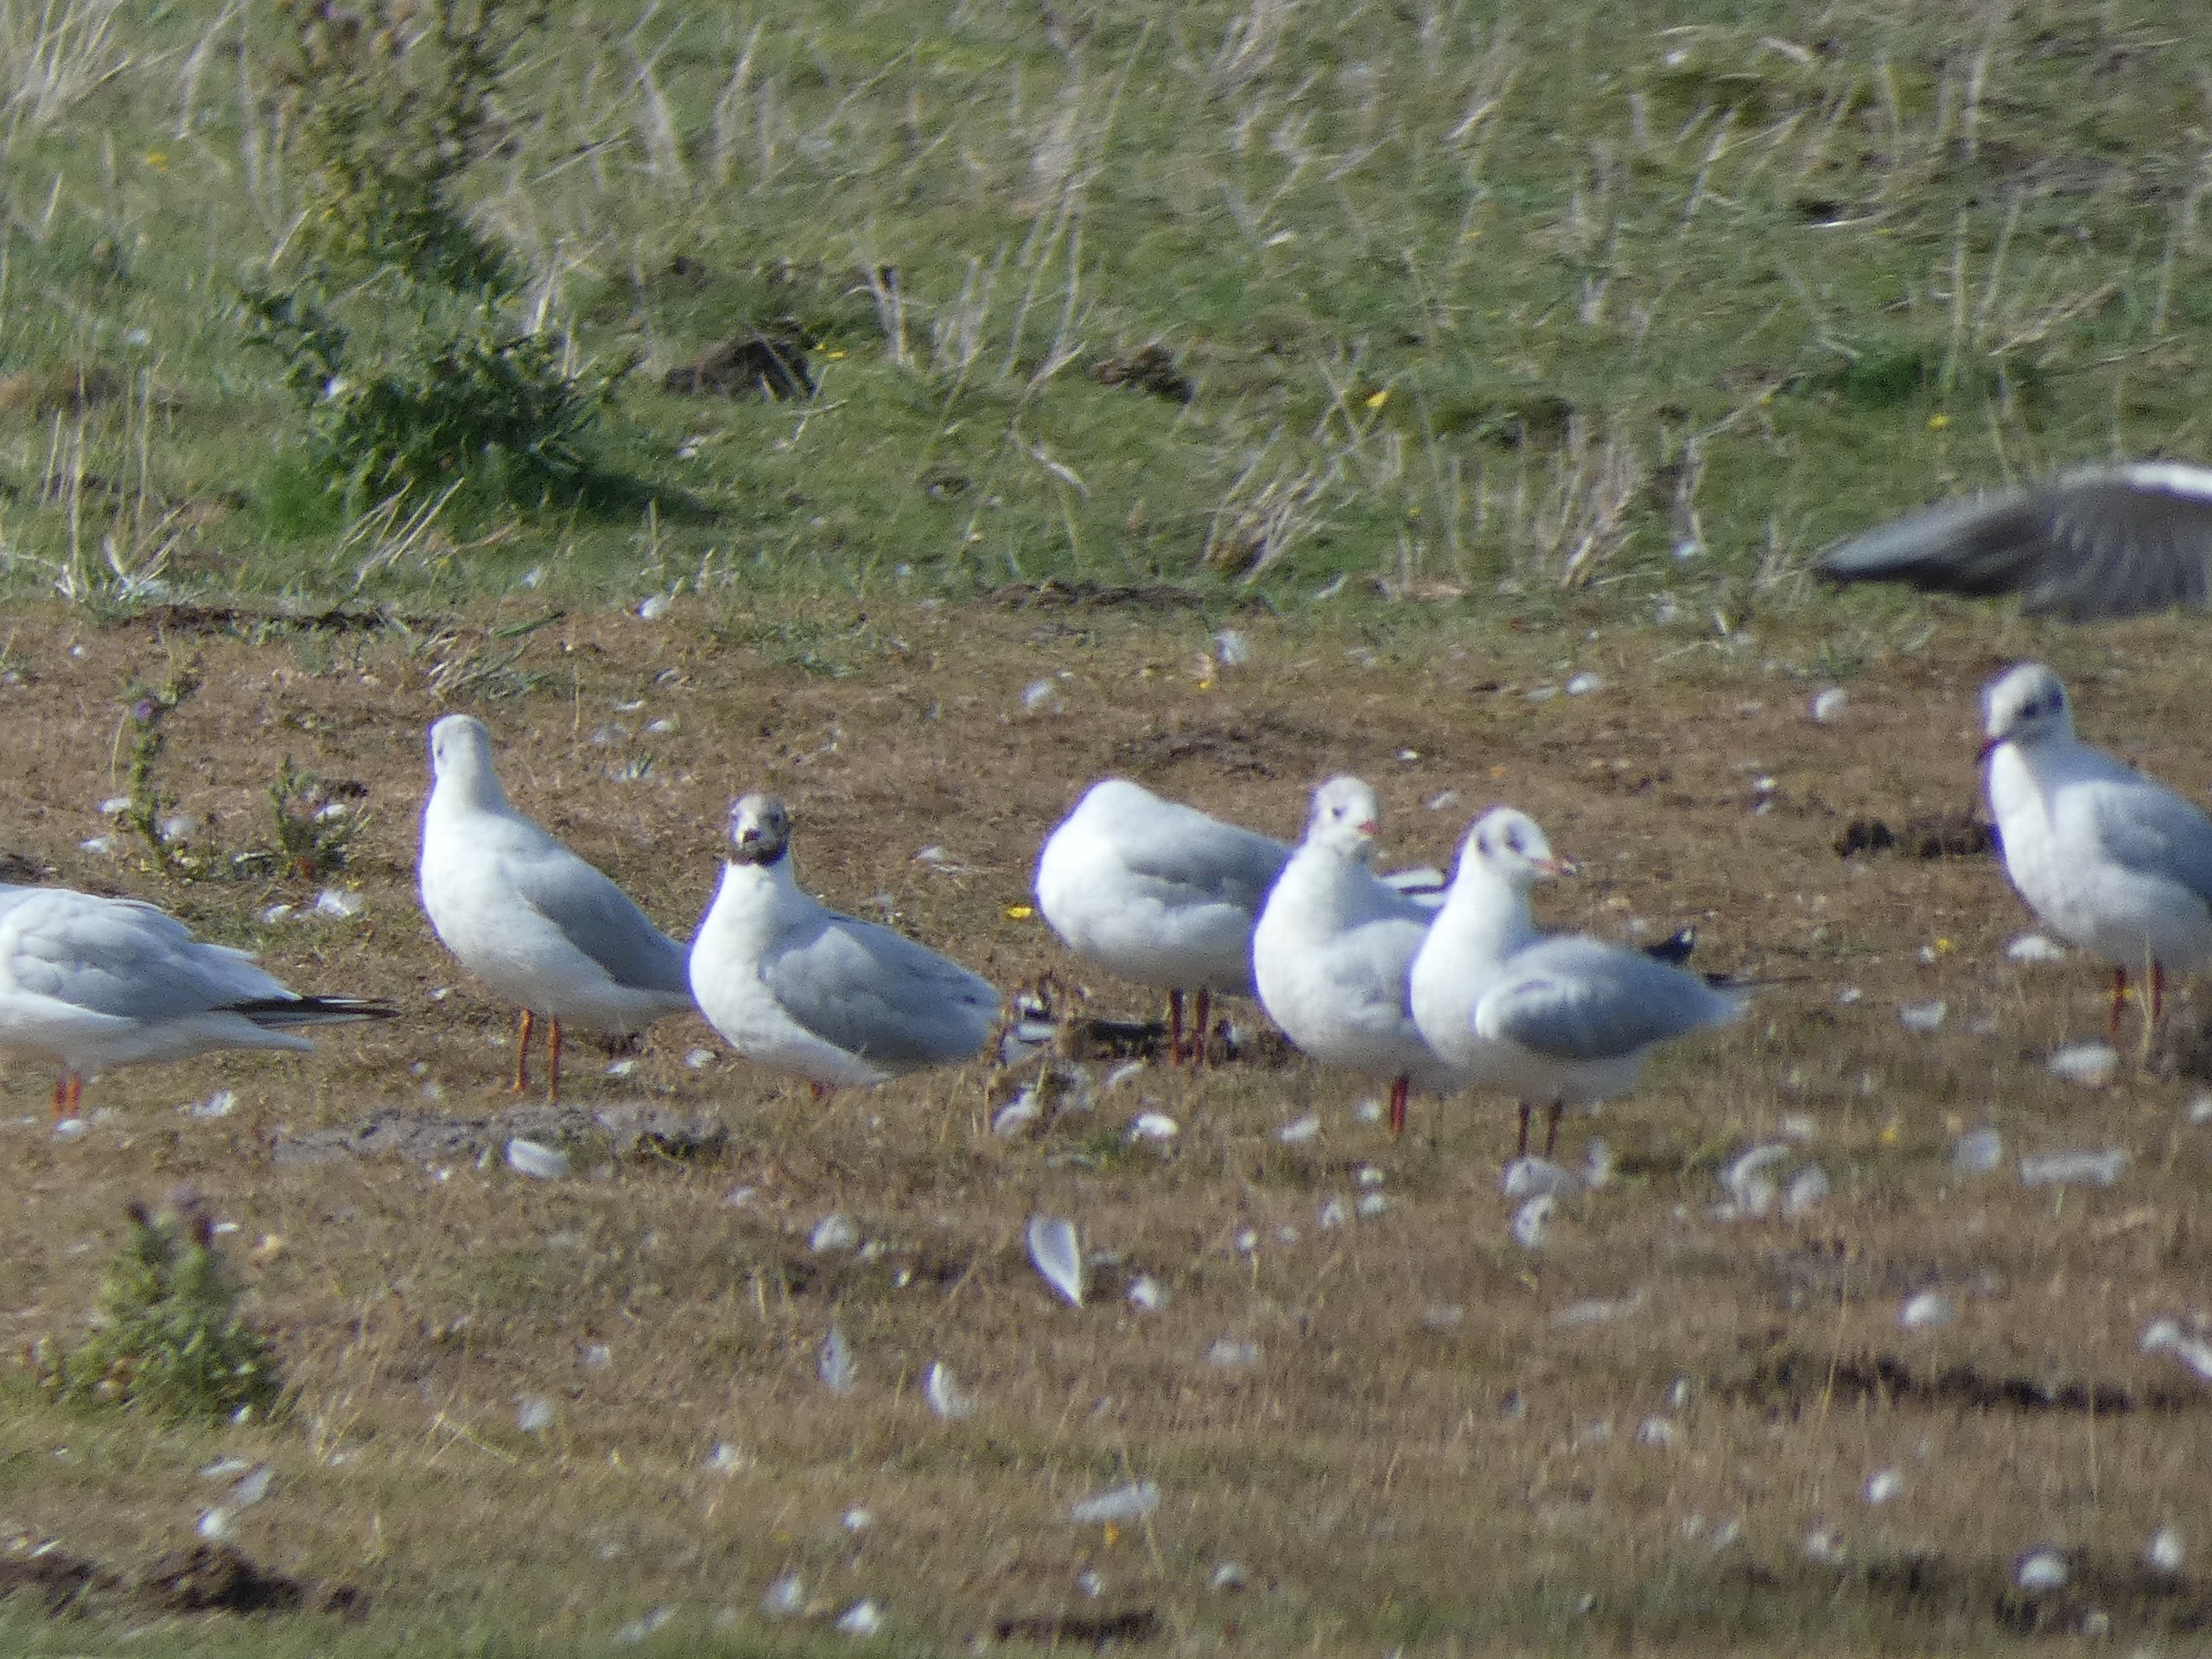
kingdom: Animalia
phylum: Chordata
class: Aves
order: Charadriiformes
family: Laridae
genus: Chroicocephalus
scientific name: Chroicocephalus ridibundus
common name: Hættemåge
